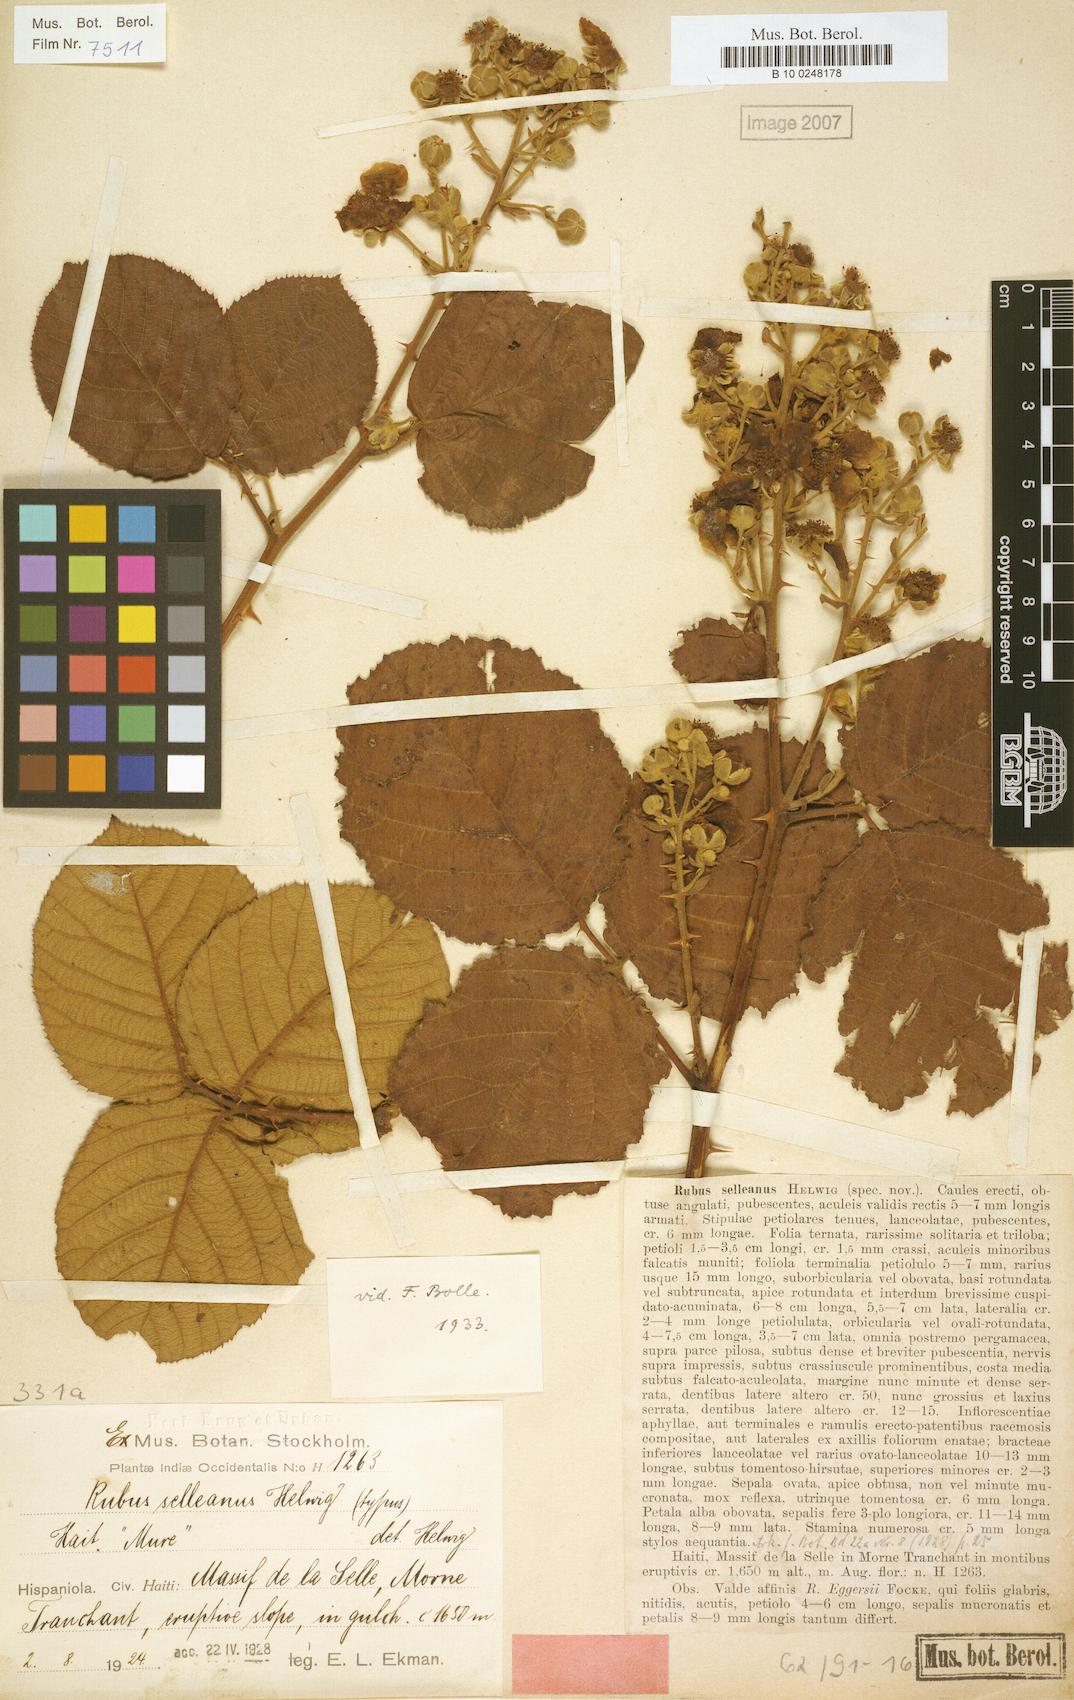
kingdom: Plantae
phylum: Tracheophyta
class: Magnoliopsida
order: Rosales
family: Rosaceae
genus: Rubus
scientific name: Rubus selleanus
